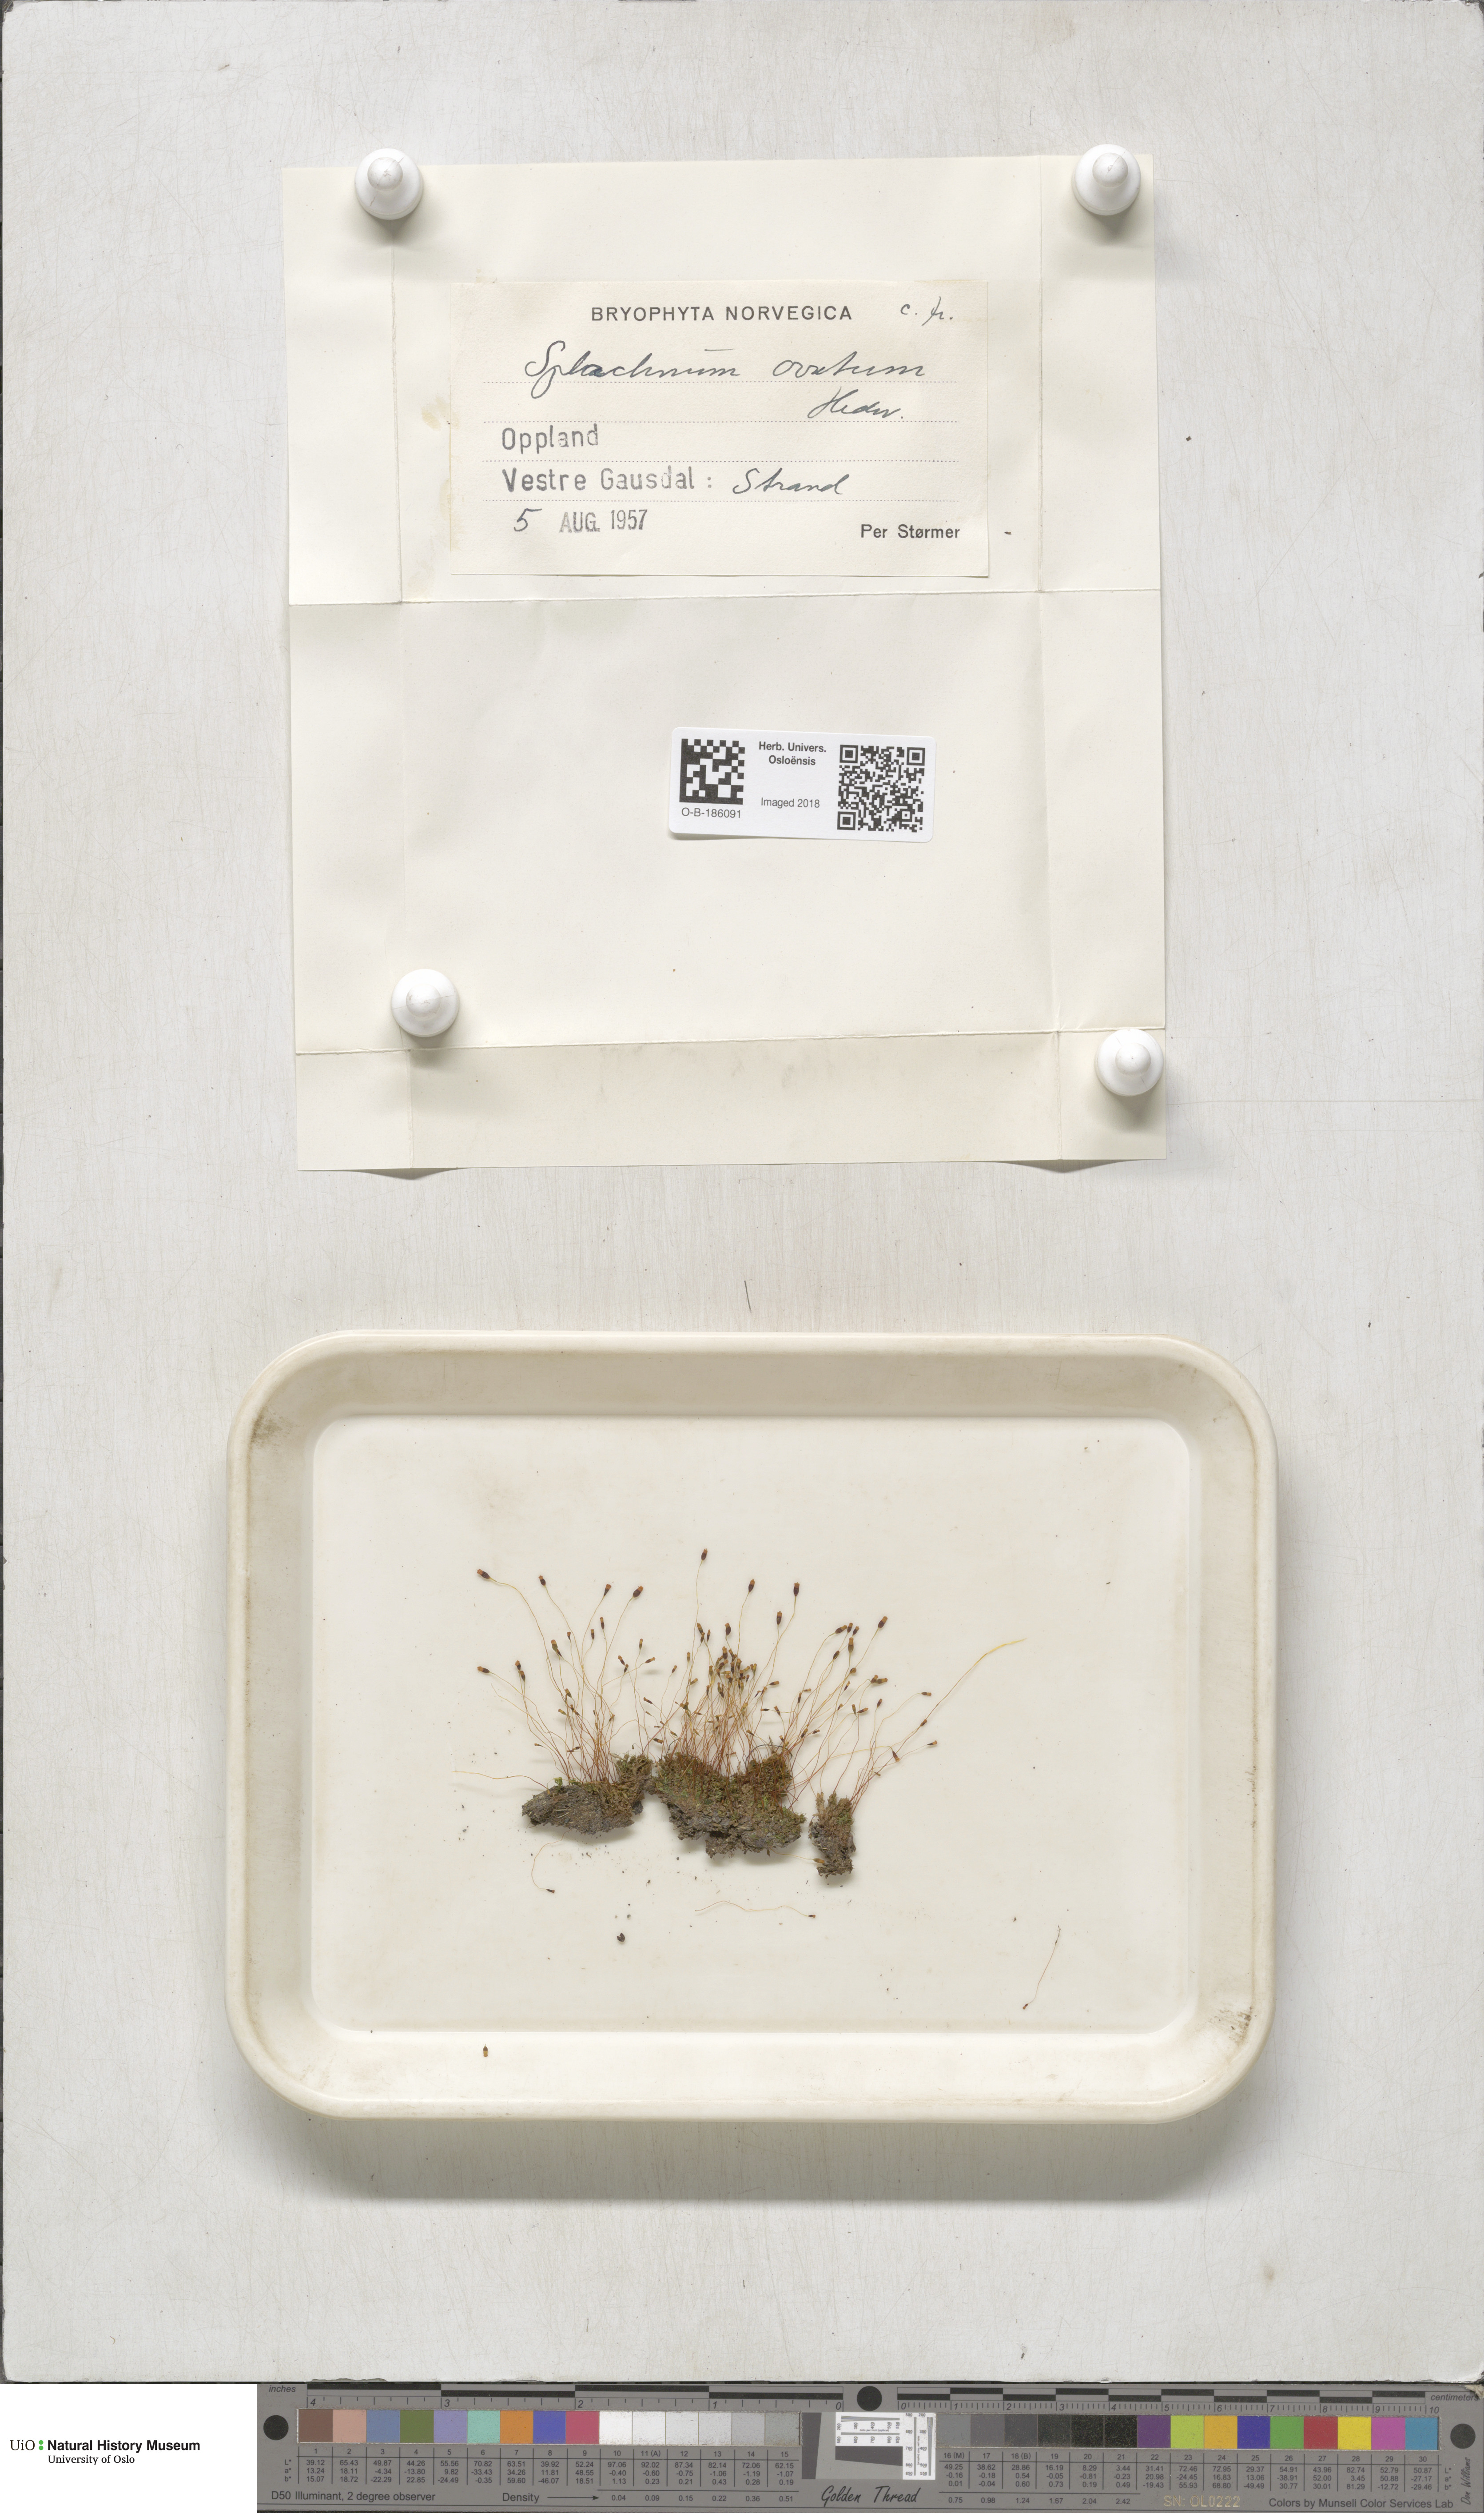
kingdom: Plantae
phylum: Bryophyta
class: Bryopsida
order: Splachnales
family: Splachnaceae
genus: Splachnum
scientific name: Splachnum sphaericum
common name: Round-fruited dung moss
